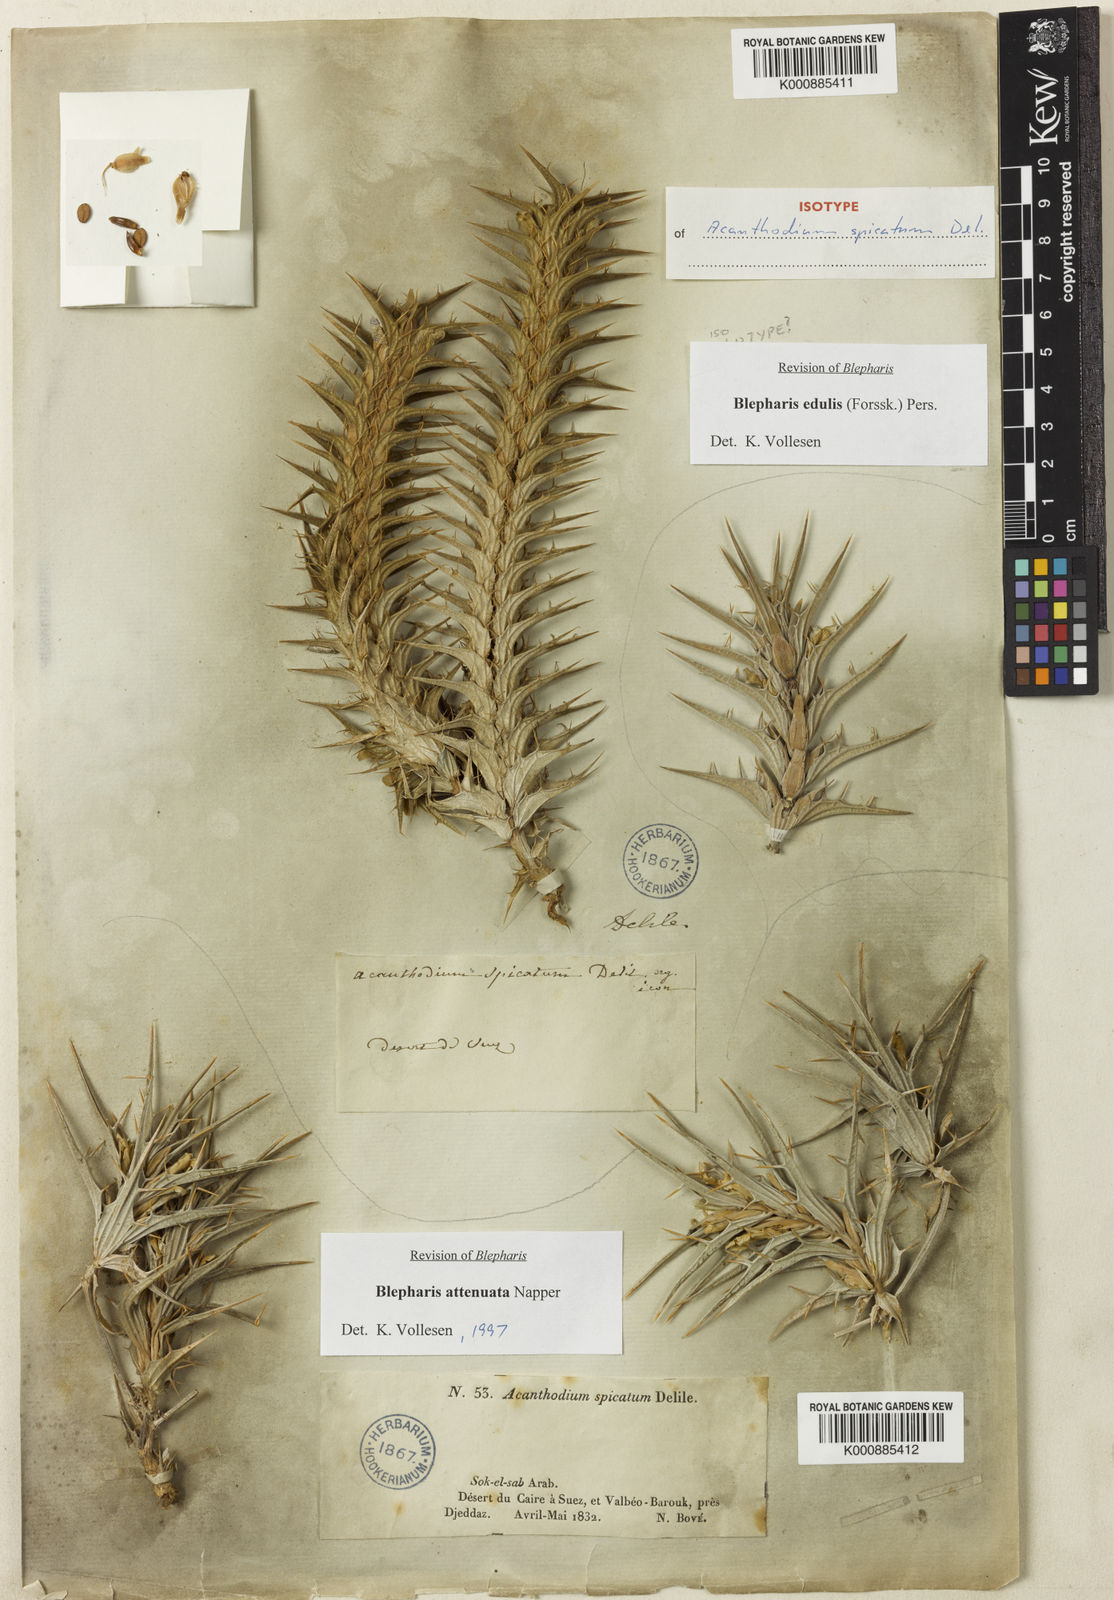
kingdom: Plantae
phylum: Tracheophyta
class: Magnoliopsida
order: Lamiales
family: Acanthaceae
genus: Blepharis
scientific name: Blepharis edulis
